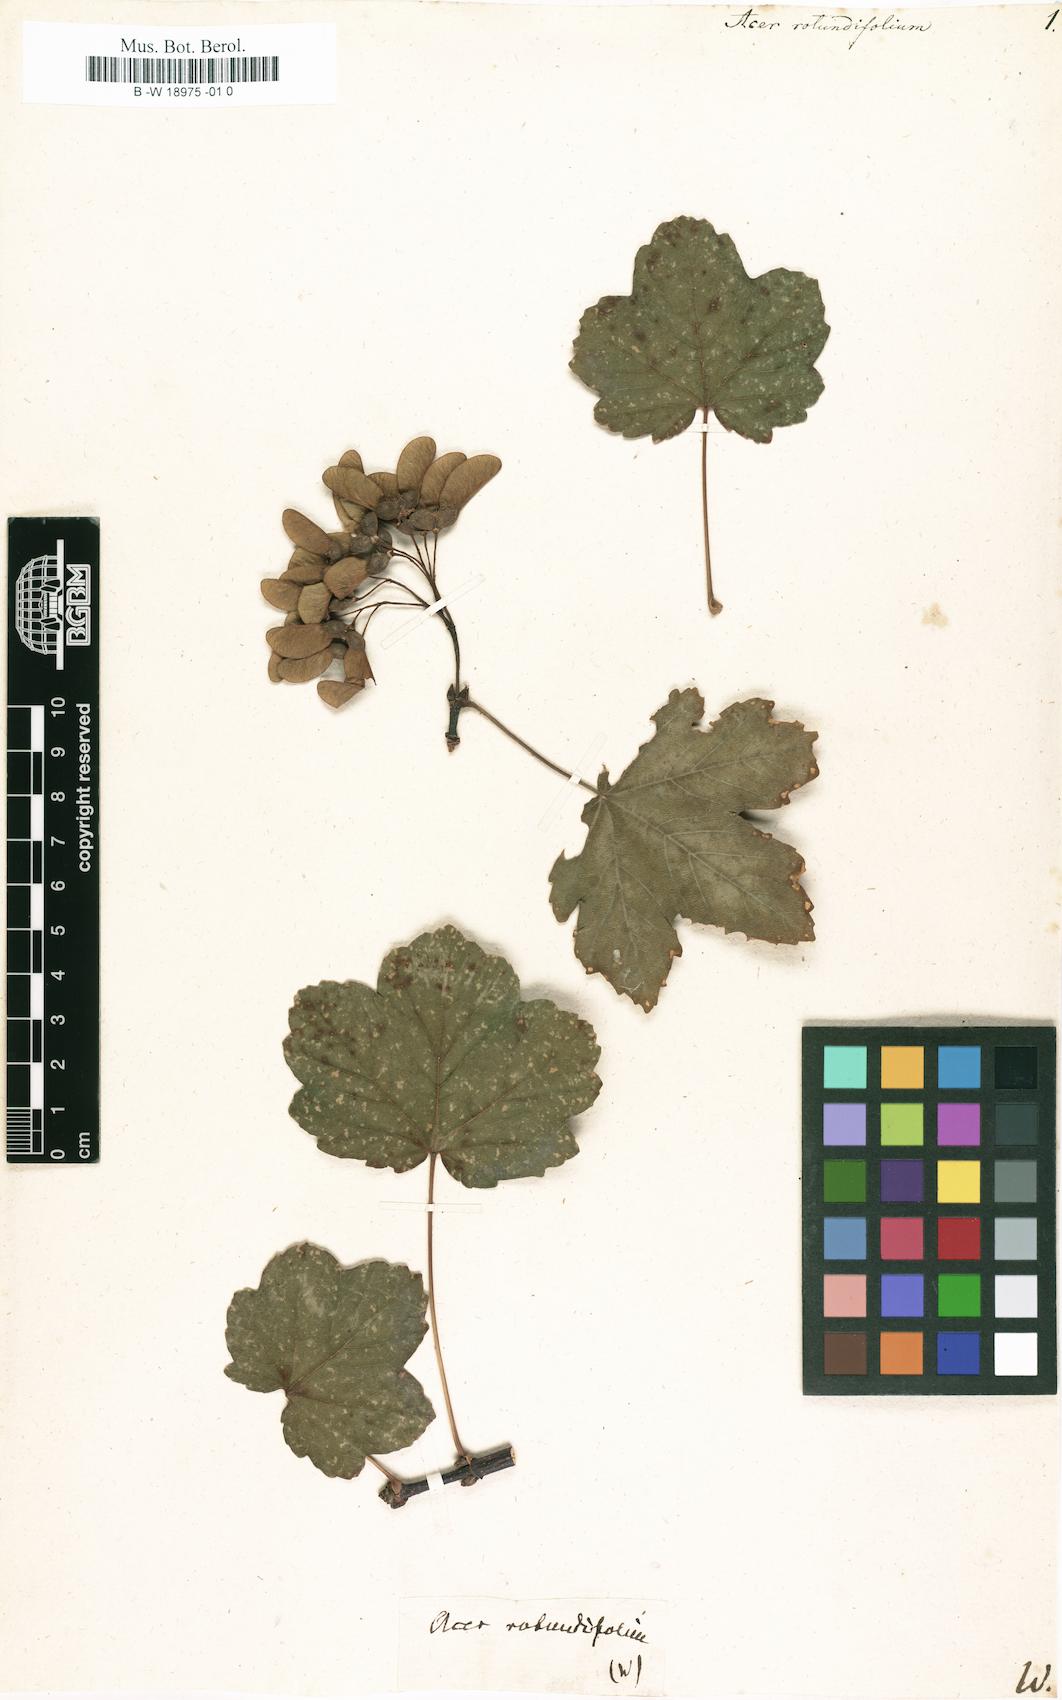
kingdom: Plantae
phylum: Tracheophyta
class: Magnoliopsida
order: Sapindales
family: Sapindaceae
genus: Acer
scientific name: Acer opalus
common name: Italian maple
